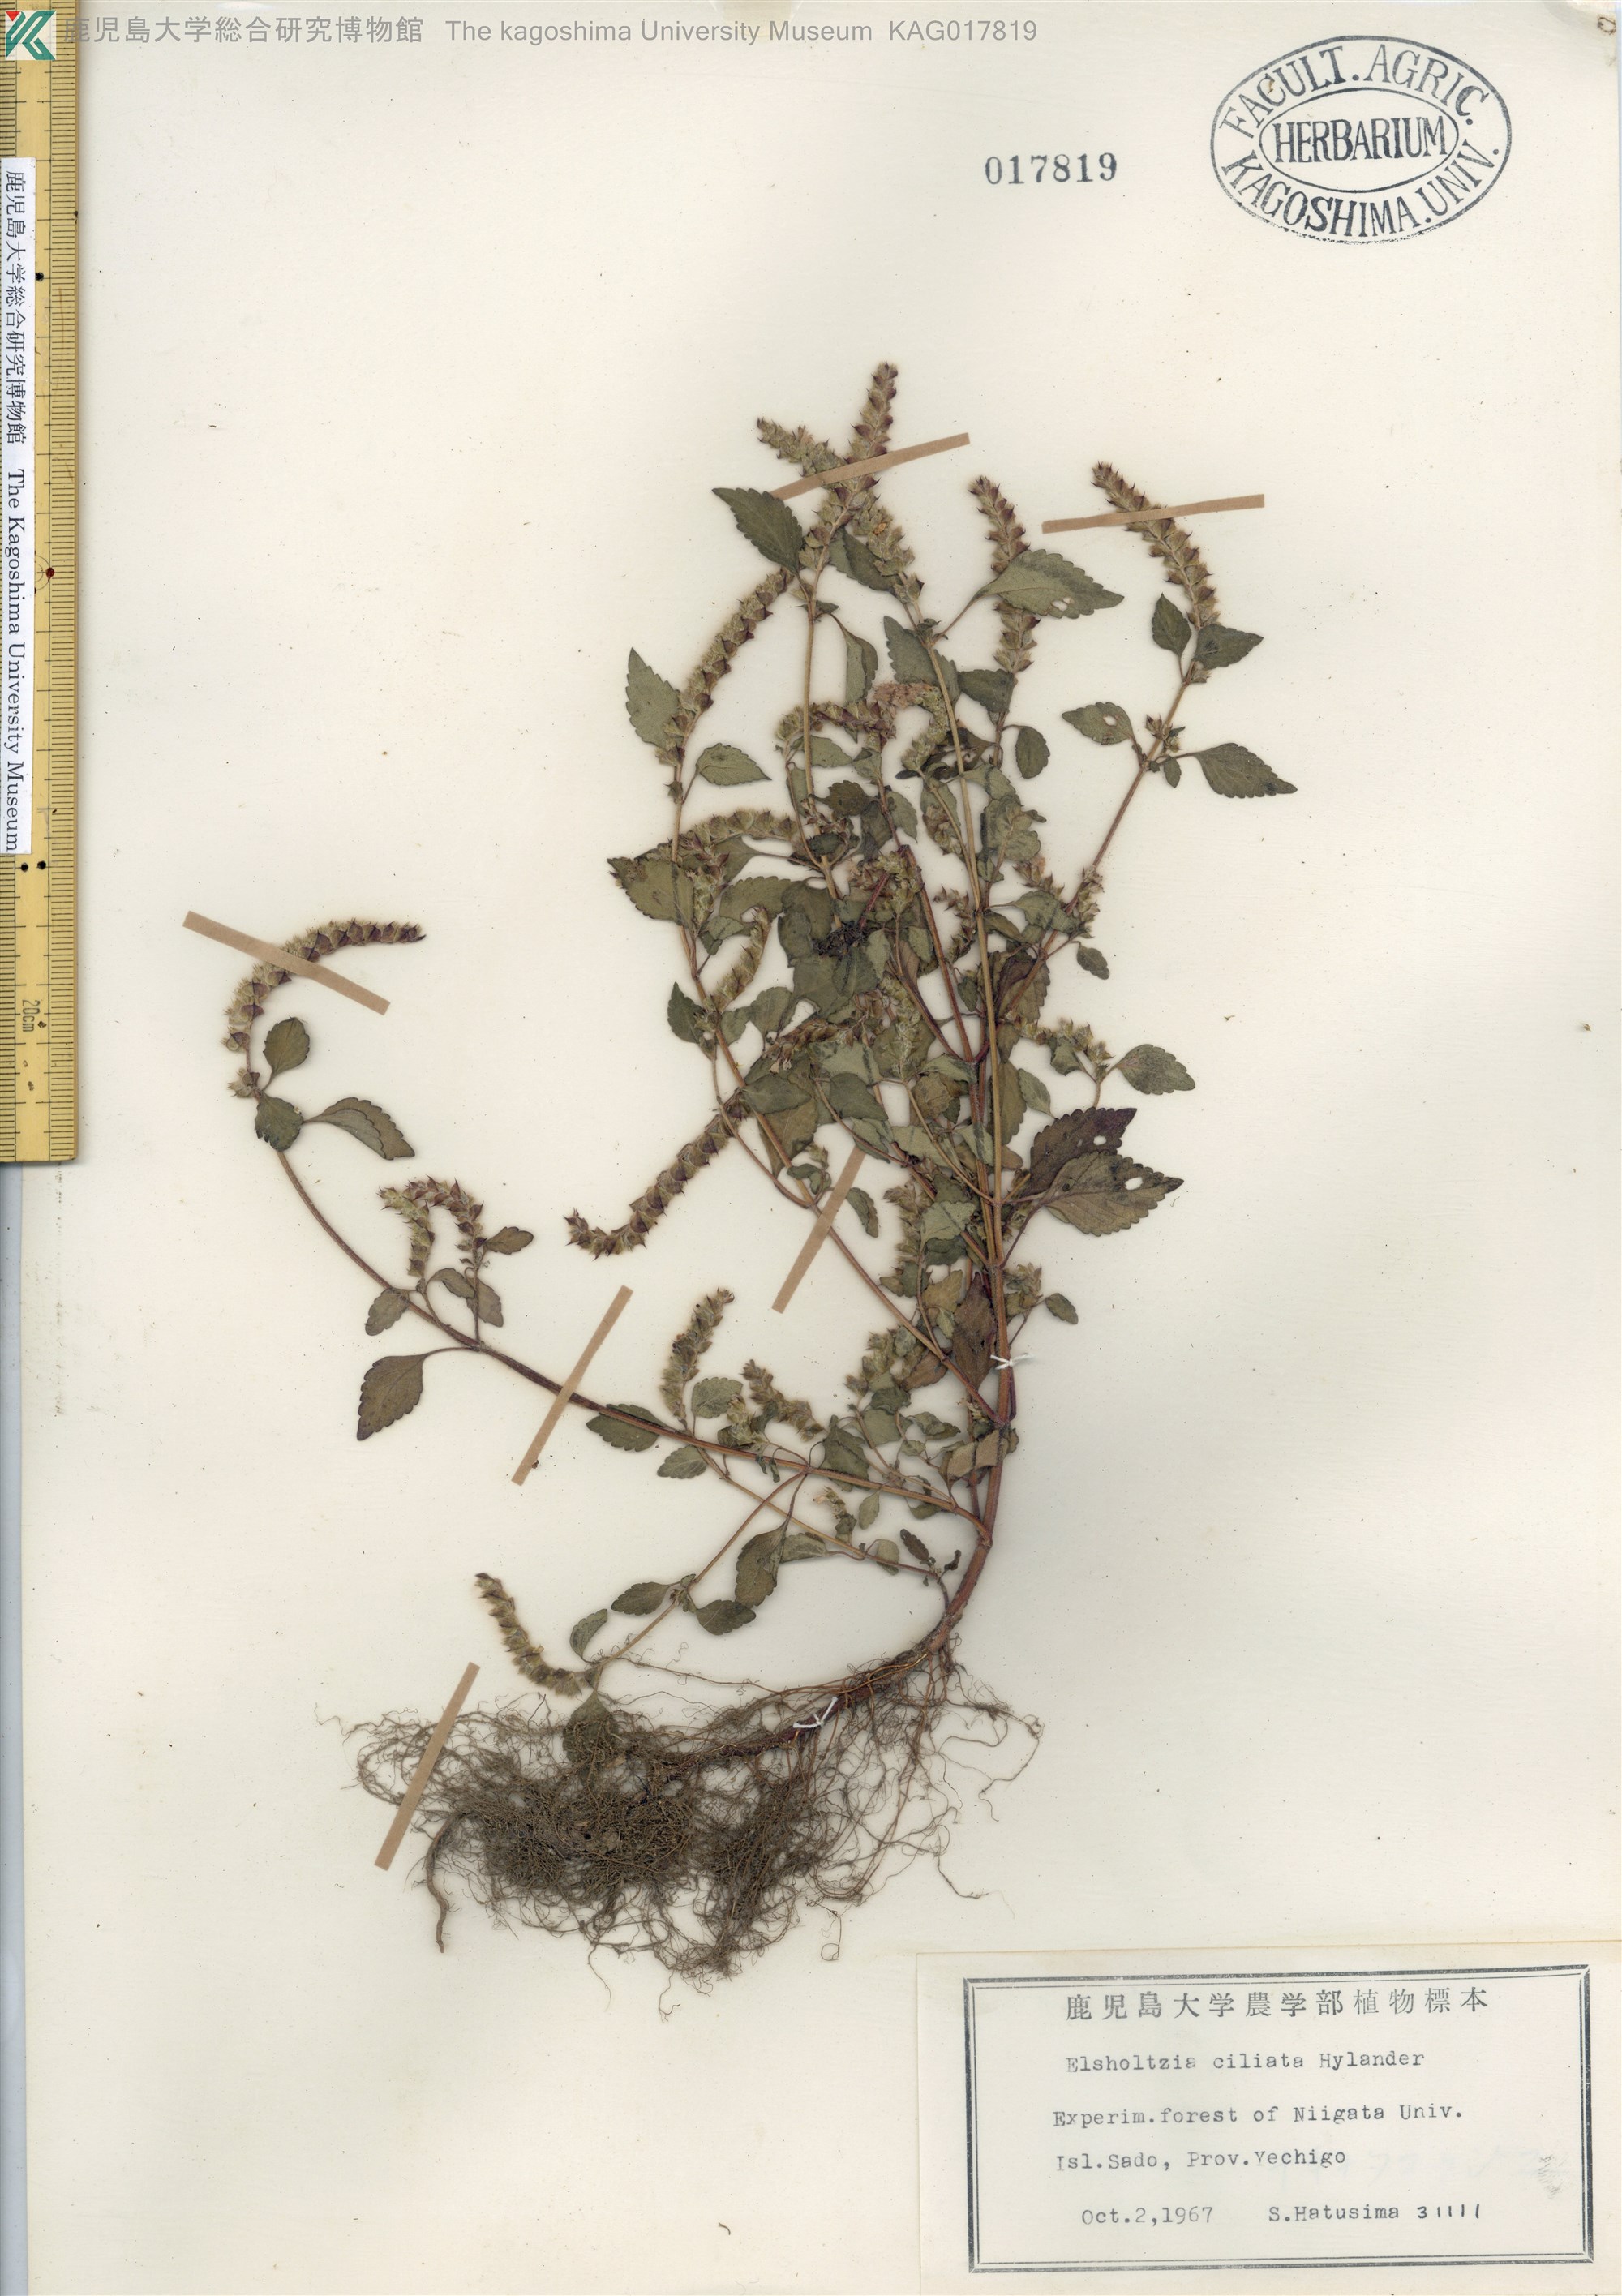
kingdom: Plantae
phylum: Tracheophyta
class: Magnoliopsida
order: Lamiales
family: Lamiaceae
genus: Elsholtzia
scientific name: Elsholtzia ciliata
